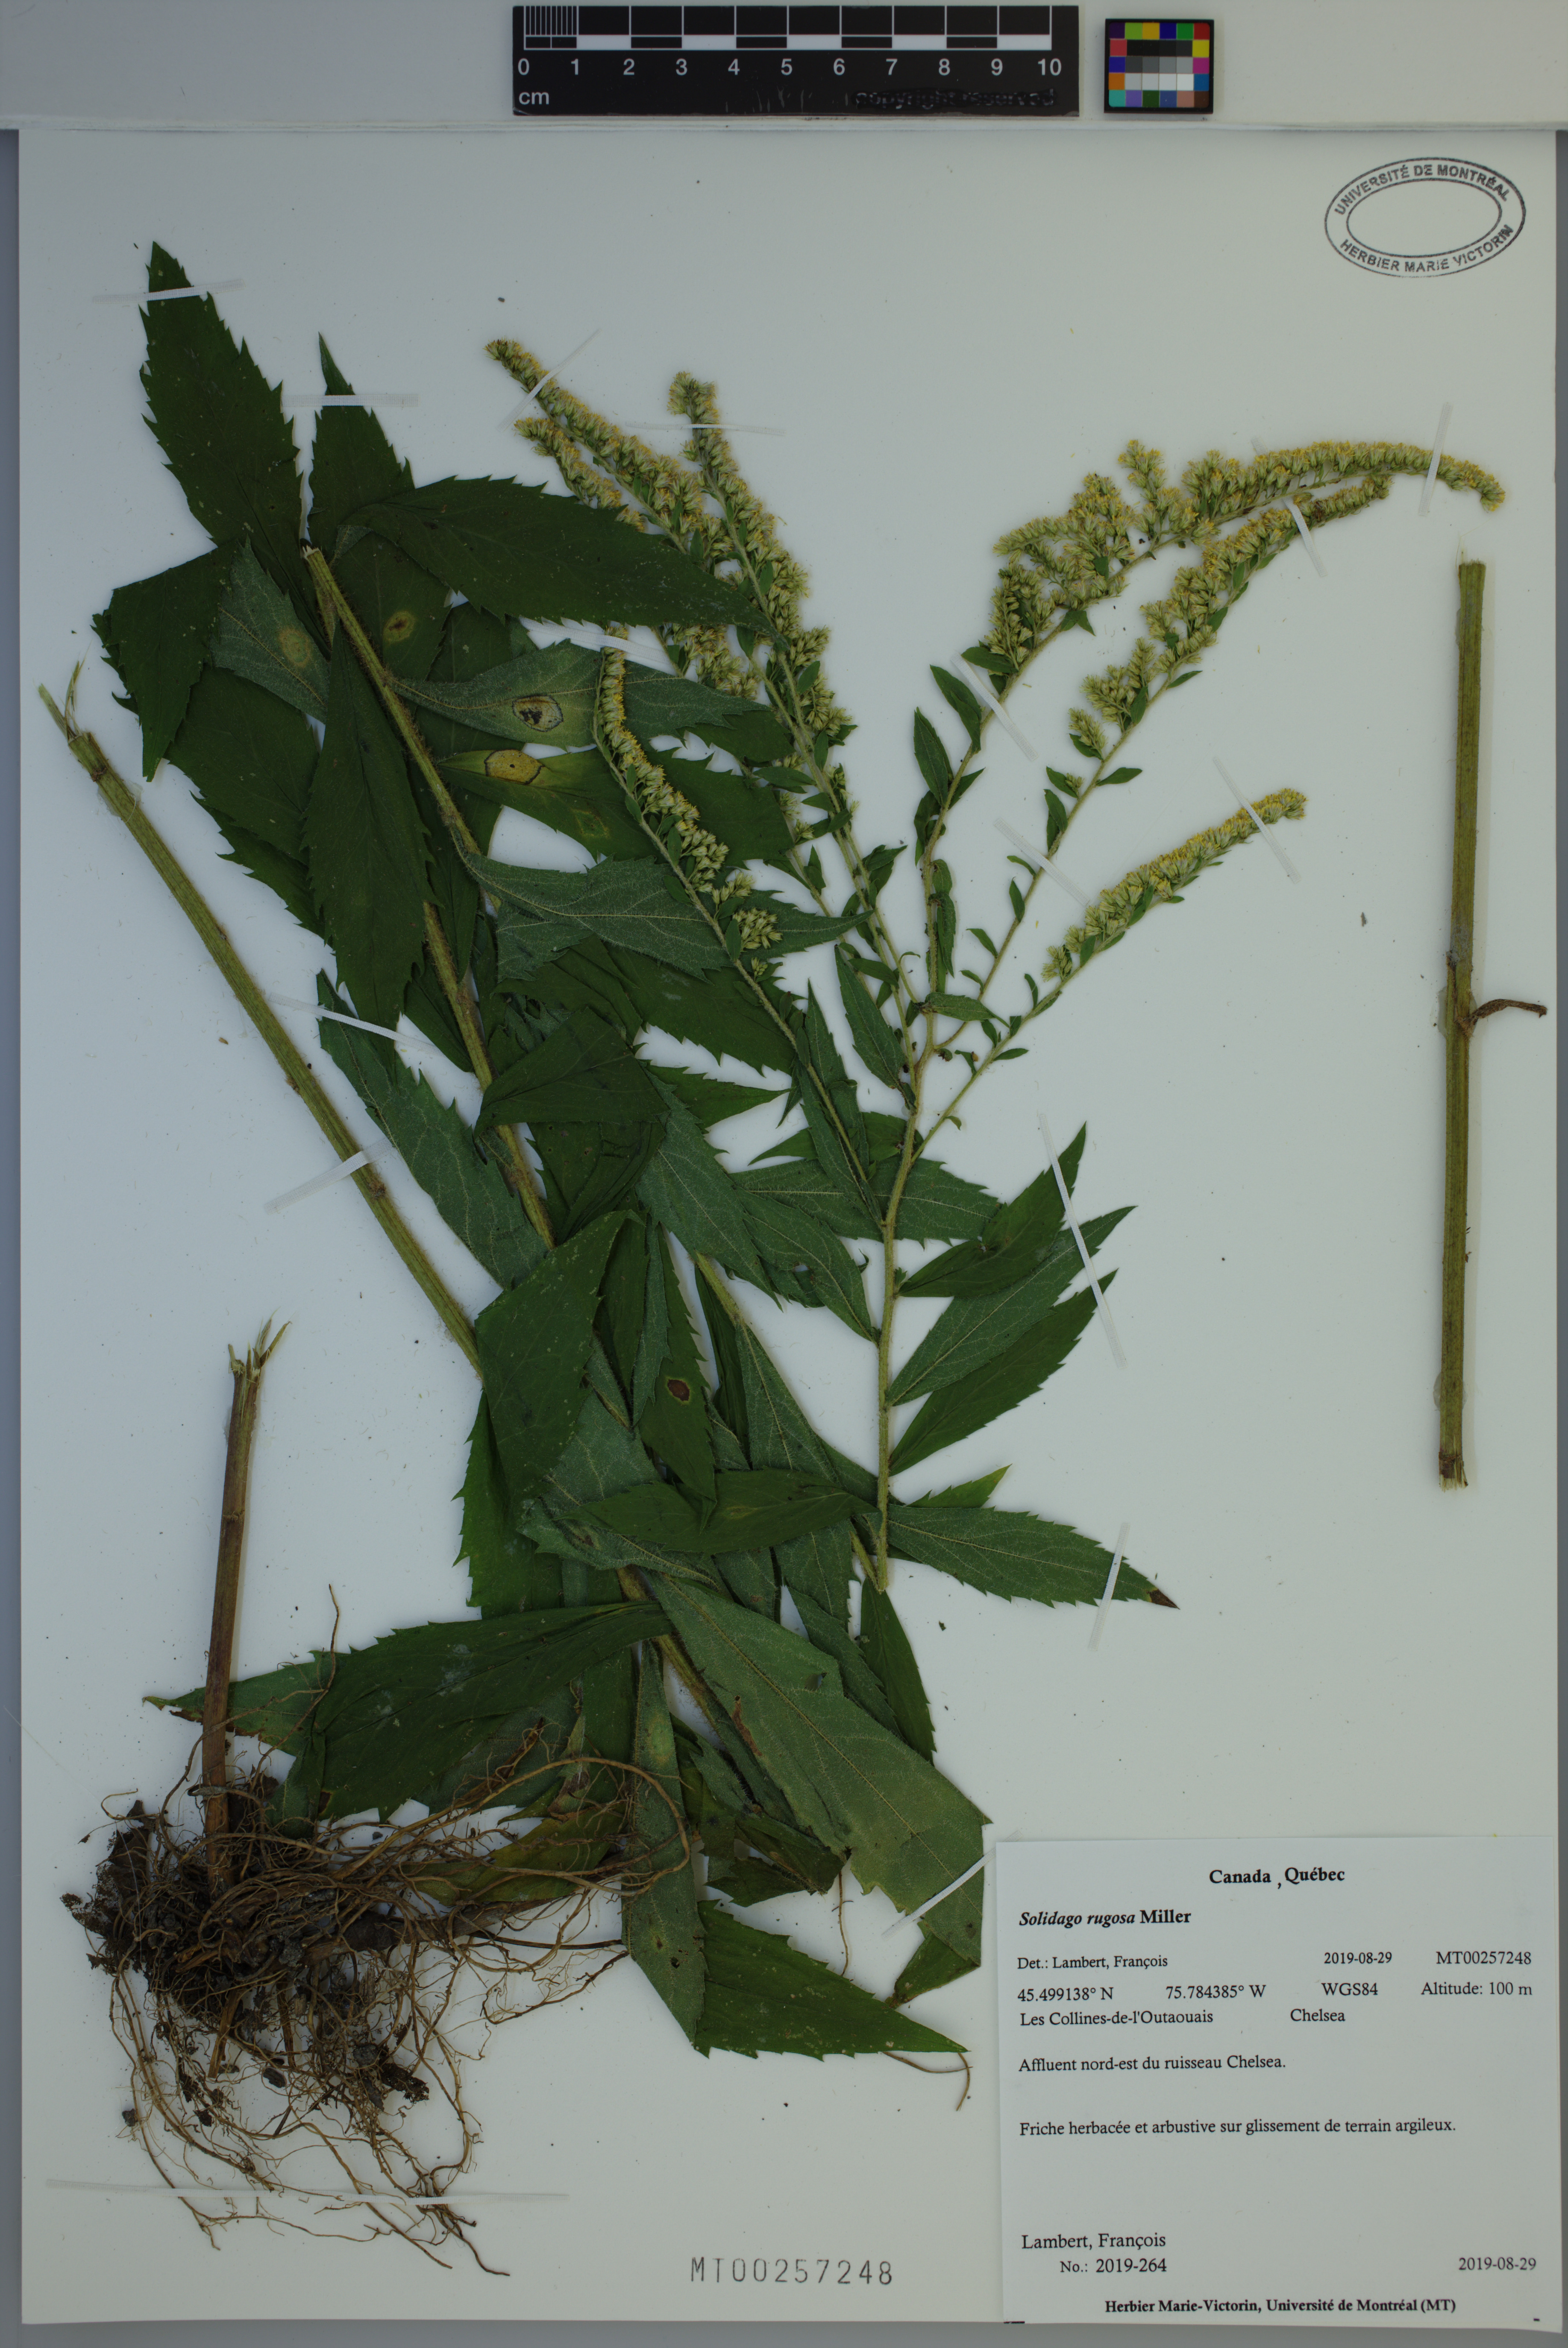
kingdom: Plantae
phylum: Tracheophyta
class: Magnoliopsida
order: Asterales
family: Asteraceae
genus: Solidago
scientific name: Solidago rugosa
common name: Rough-stemmed goldenrod
